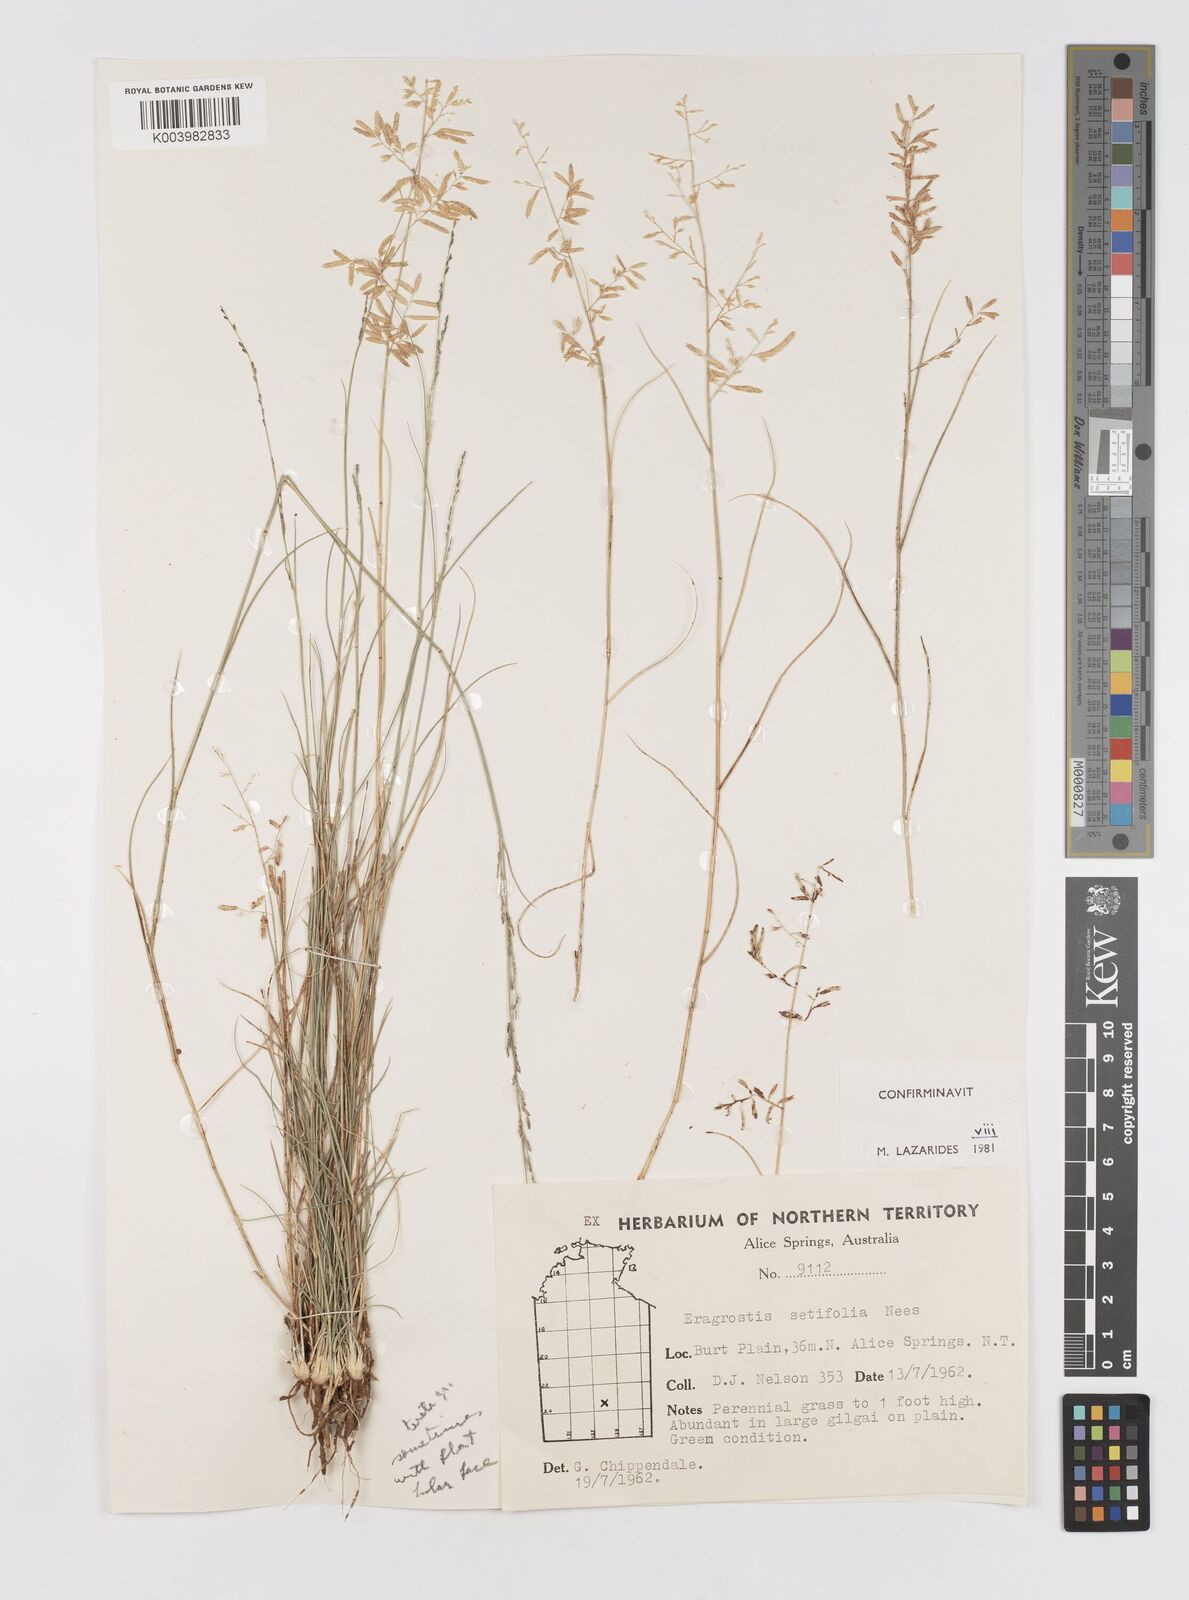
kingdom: Plantae
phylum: Tracheophyta
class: Liliopsida
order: Poales
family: Poaceae
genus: Eragrostis
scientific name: Eragrostis setifolia
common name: Bristleleaf lovegrass
